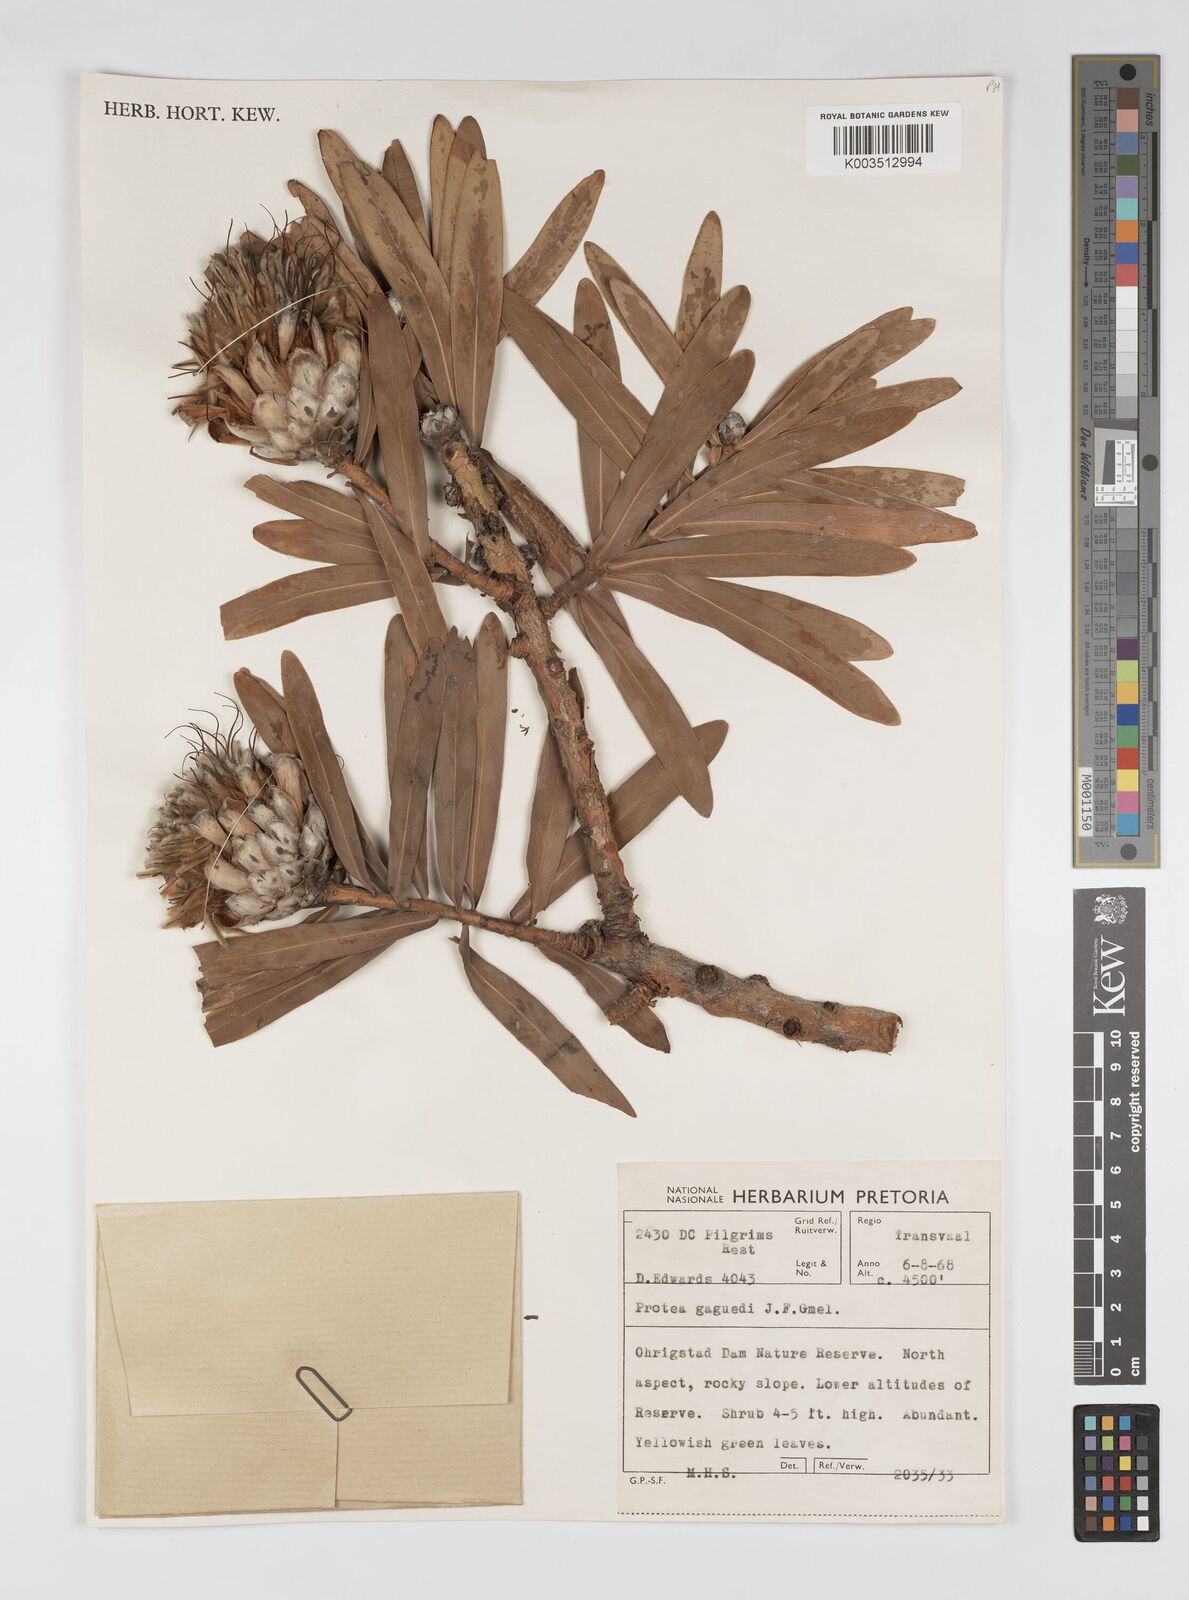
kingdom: Plantae
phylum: Tracheophyta
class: Magnoliopsida
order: Proteales
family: Proteaceae
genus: Protea
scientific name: Protea gaguedi
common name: African protea
